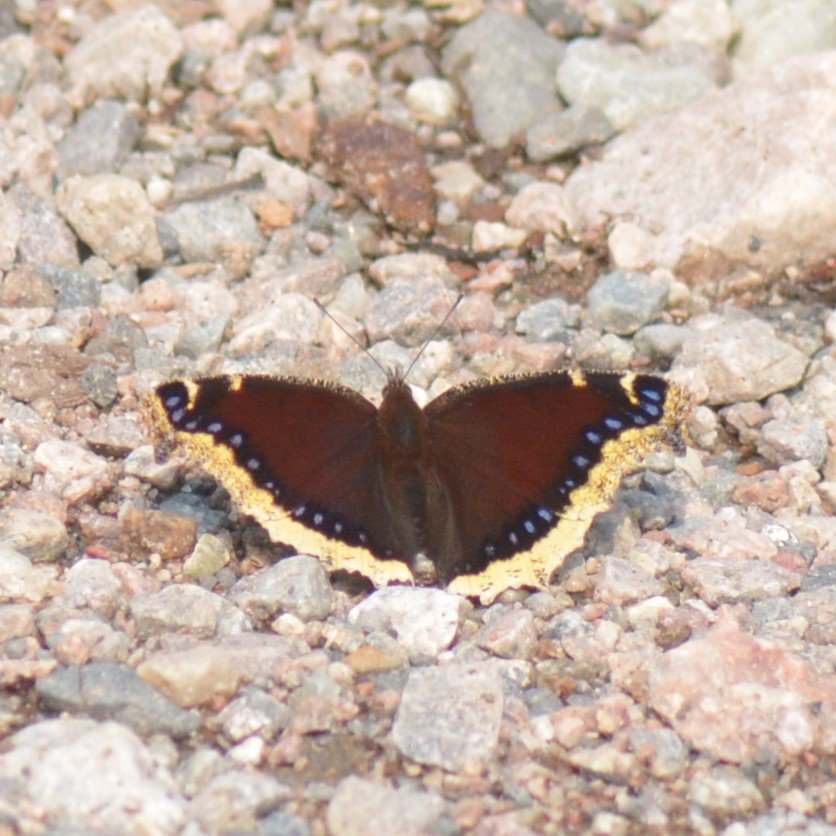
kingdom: Animalia
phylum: Arthropoda
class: Insecta
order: Lepidoptera
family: Nymphalidae
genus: Nymphalis
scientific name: Nymphalis antiopa
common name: Mourning Cloak
